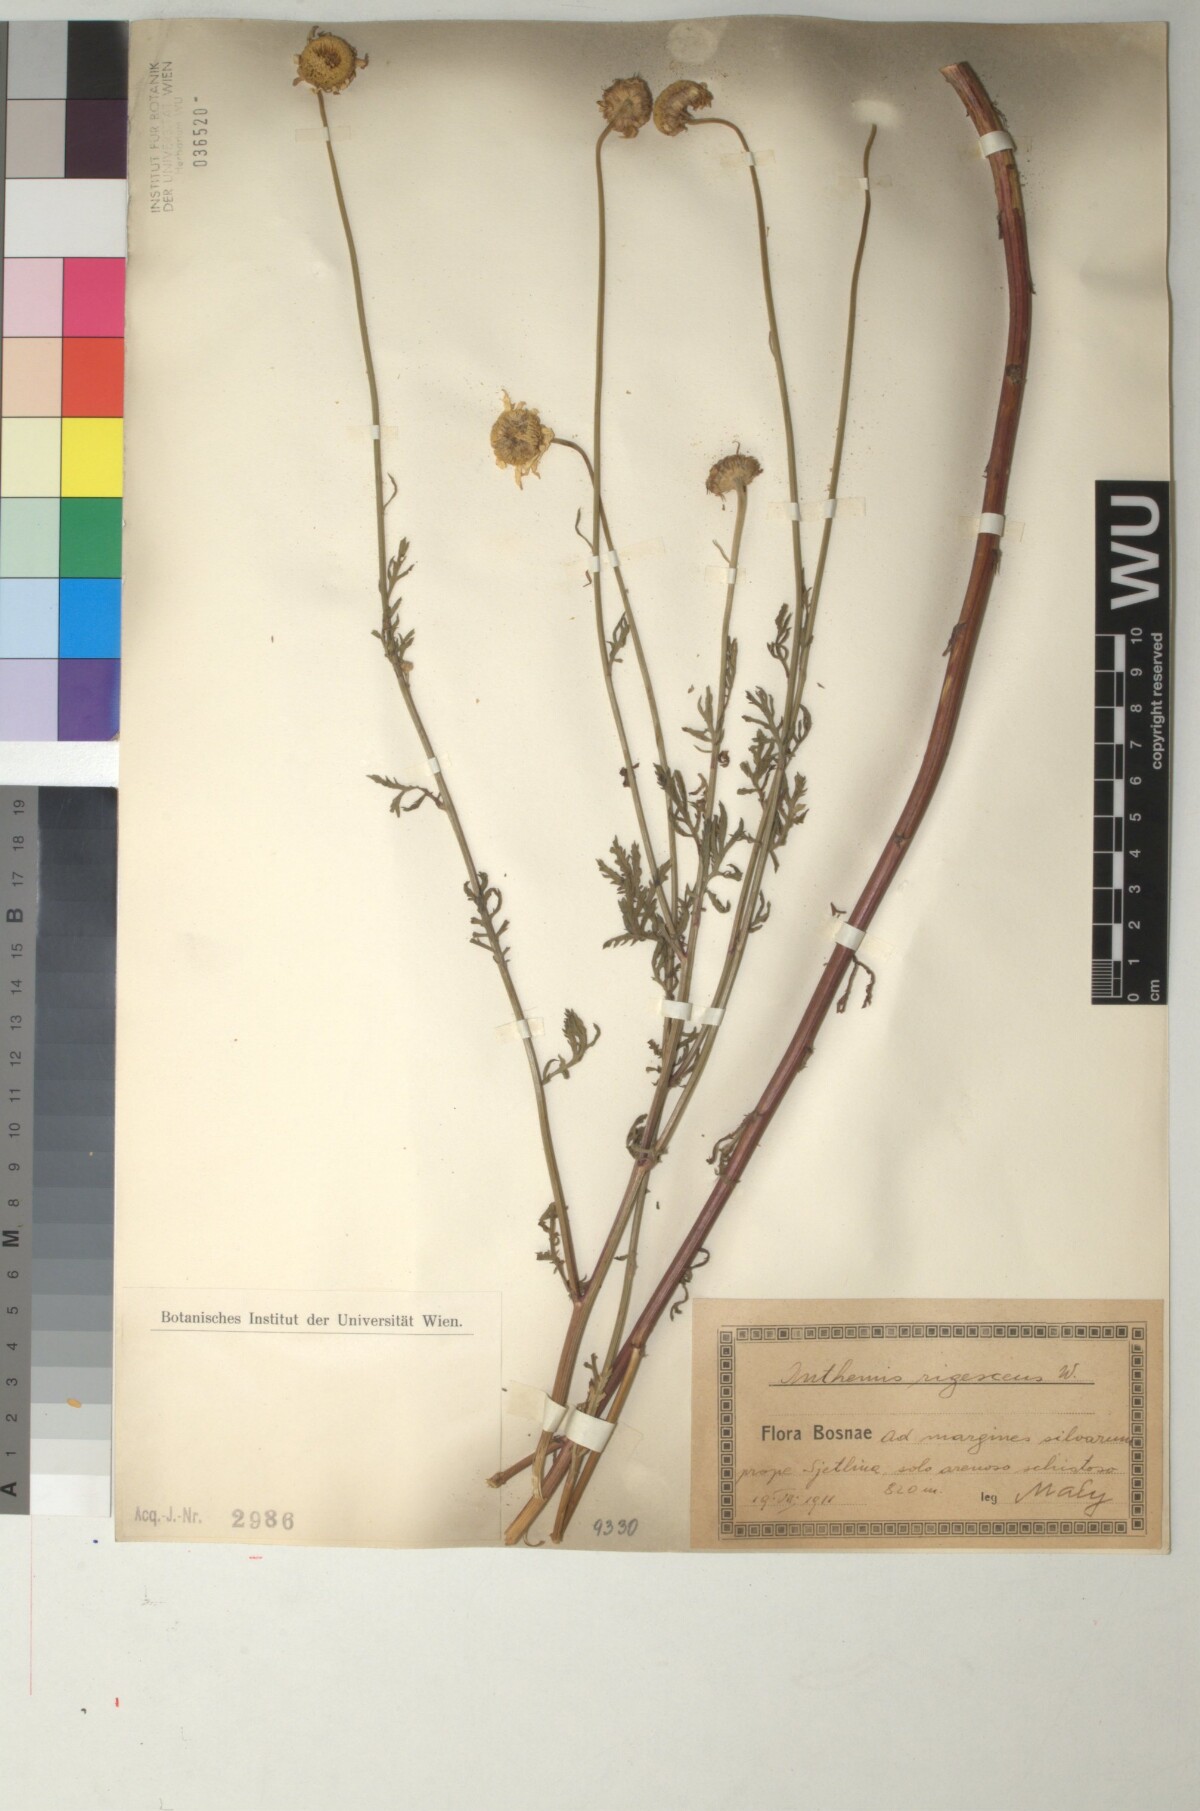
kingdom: Plantae
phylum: Tracheophyta
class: Magnoliopsida
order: Asterales
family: Asteraceae
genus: Cota
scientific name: Cota triumfetti
